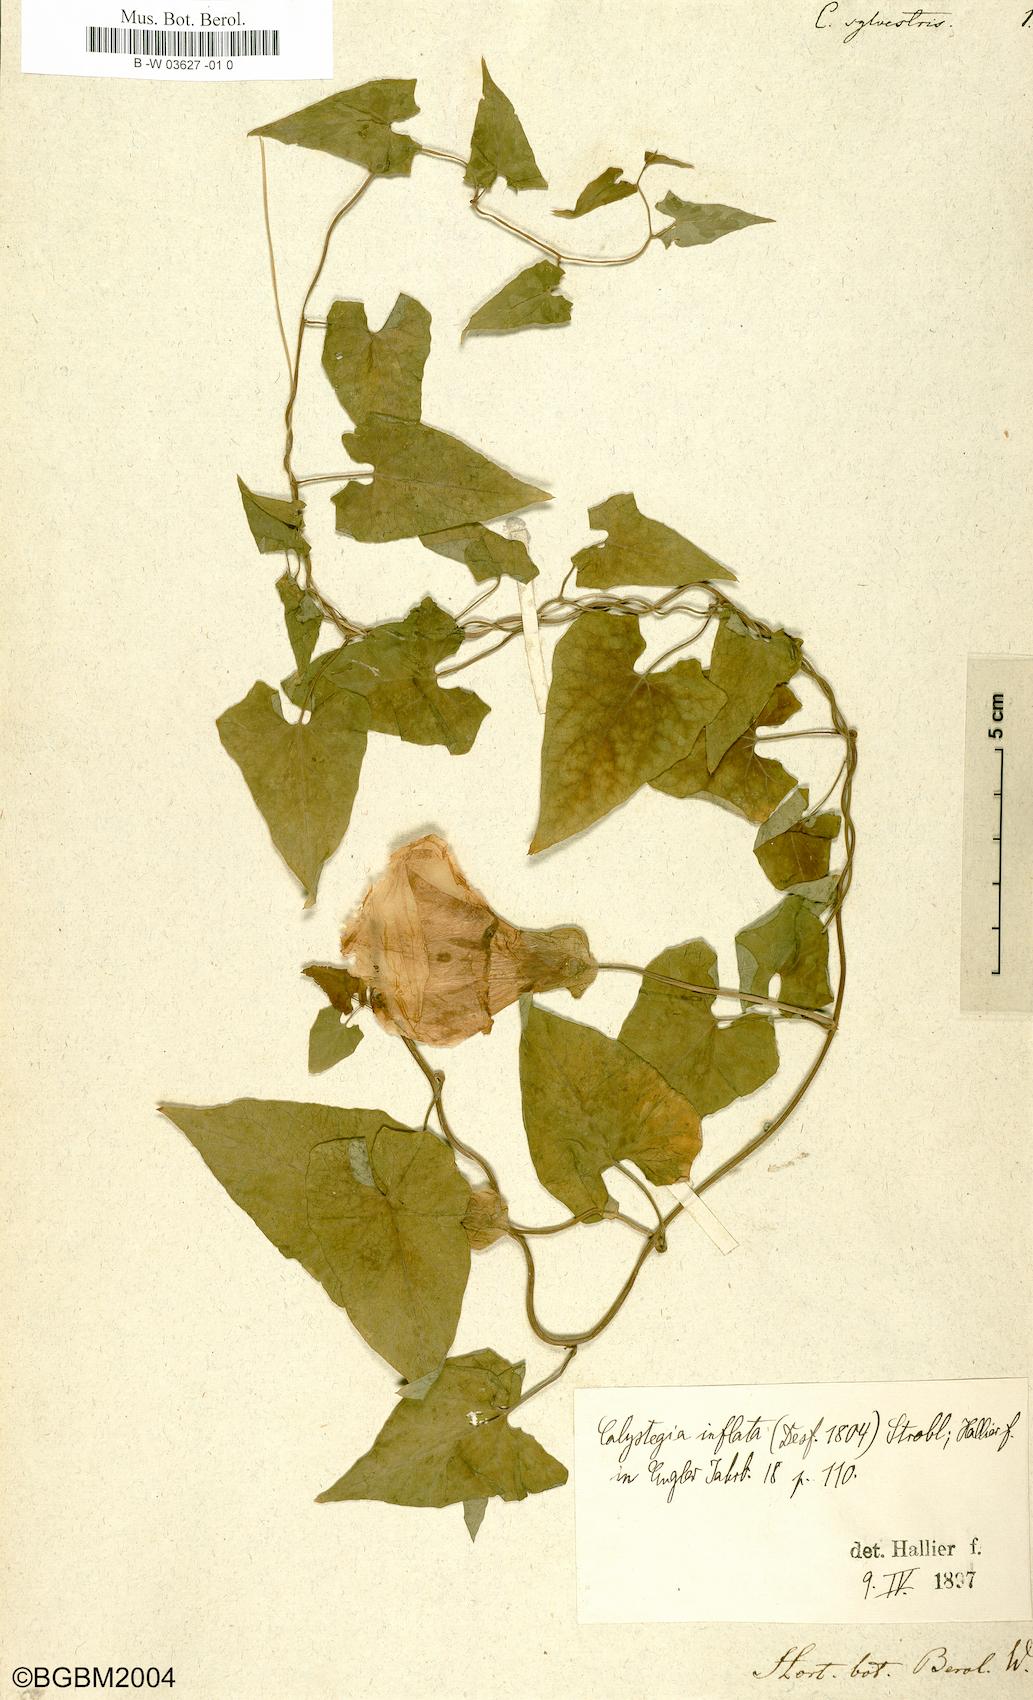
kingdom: Plantae
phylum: Tracheophyta
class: Magnoliopsida
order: Solanales
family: Convolvulaceae
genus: Calystegia
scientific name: Calystegia silvatica
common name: Large bindweed
